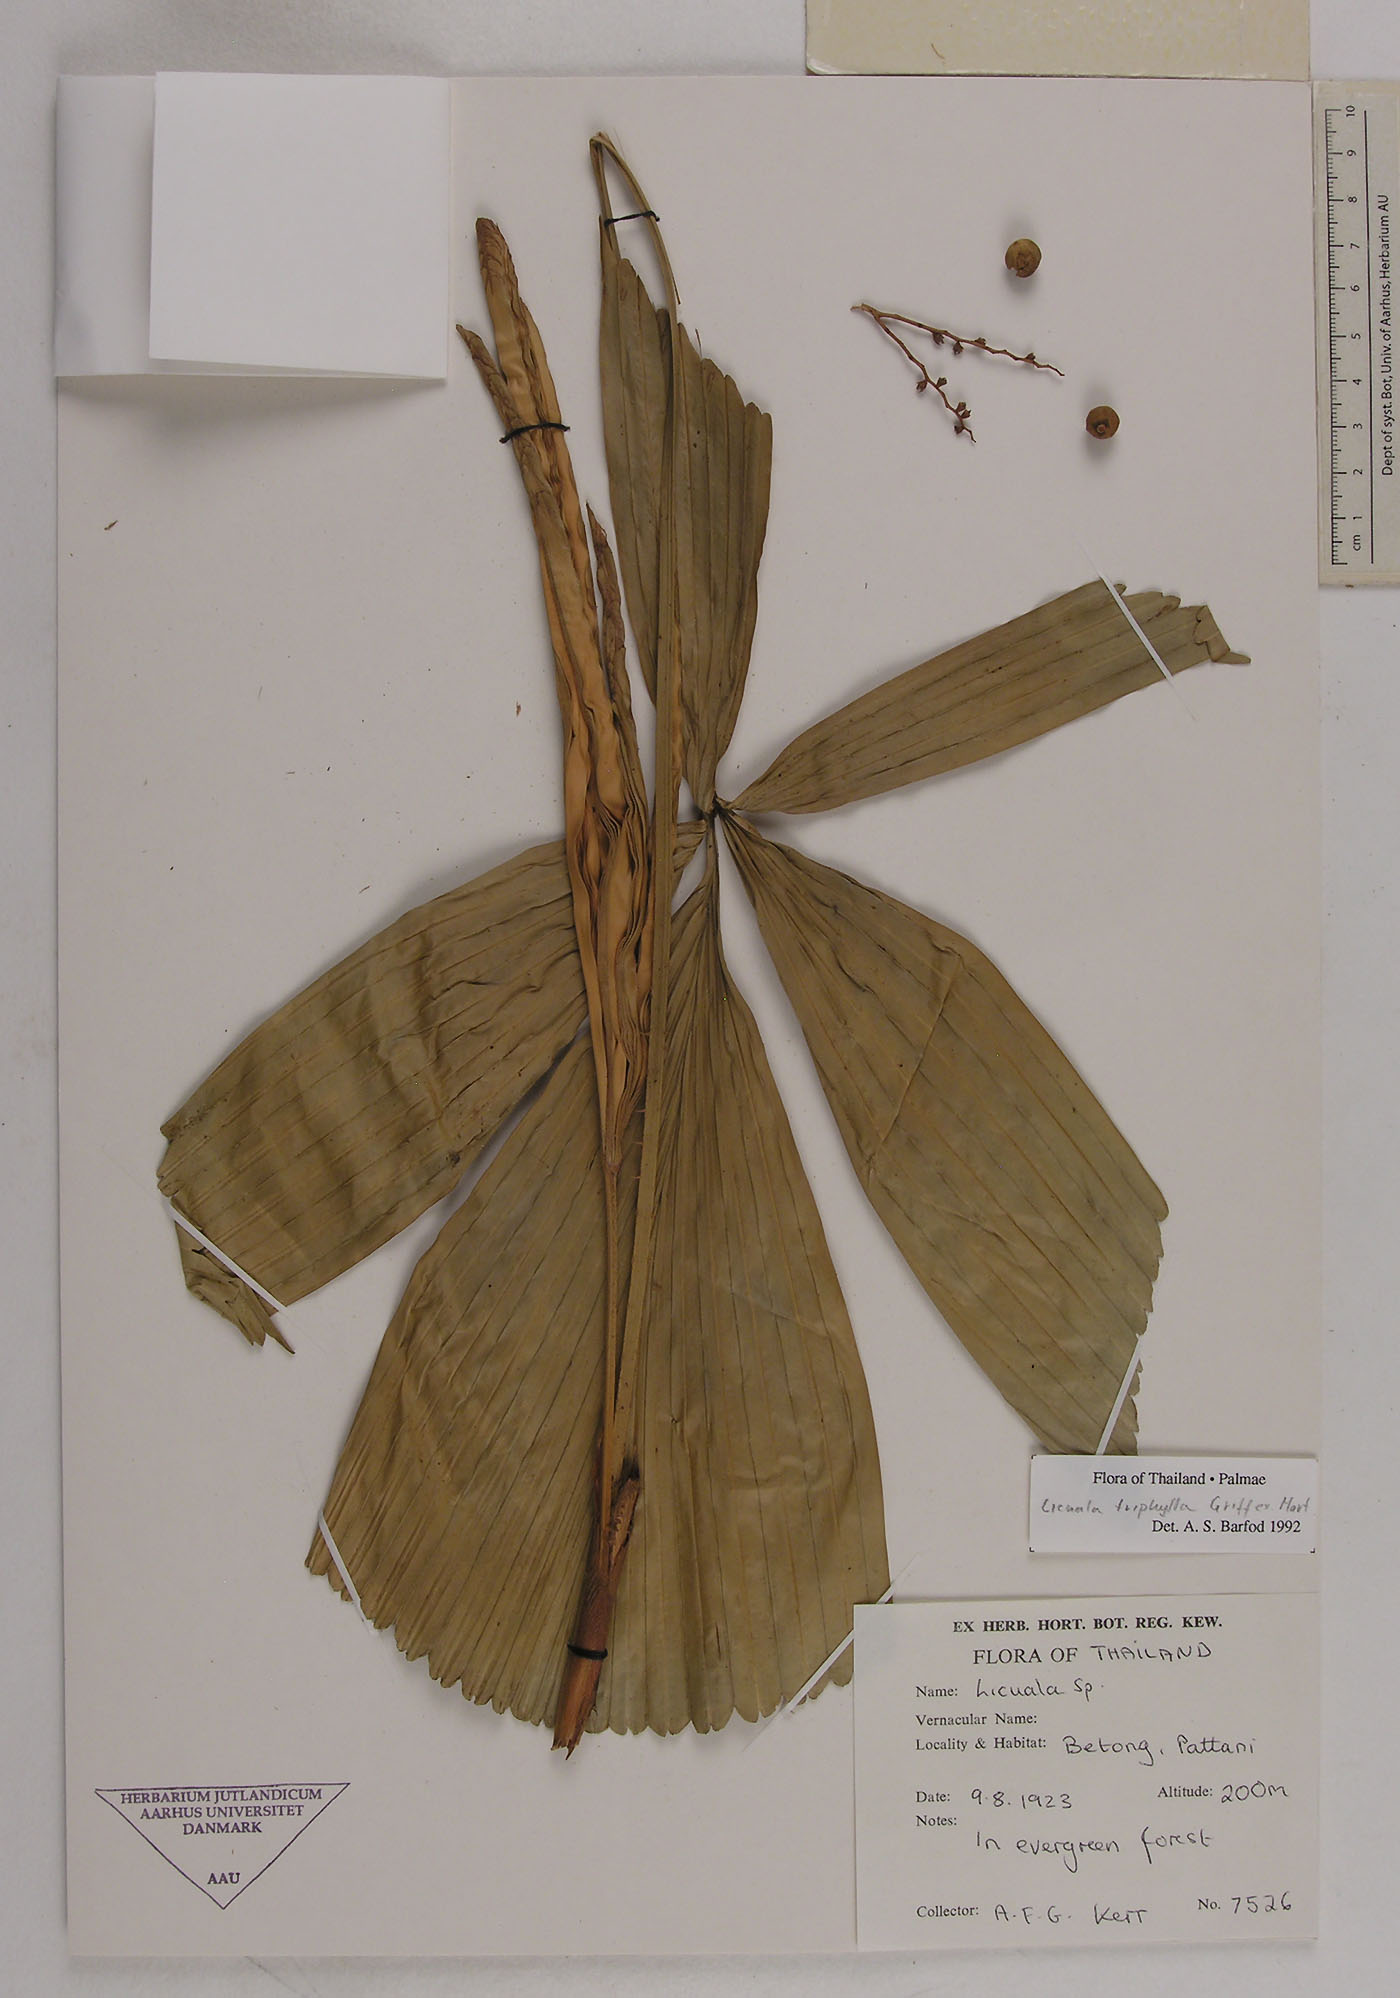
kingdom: Plantae
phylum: Tracheophyta
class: Liliopsida
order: Arecales
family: Arecaceae
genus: Licuala
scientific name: Licuala triphylla
